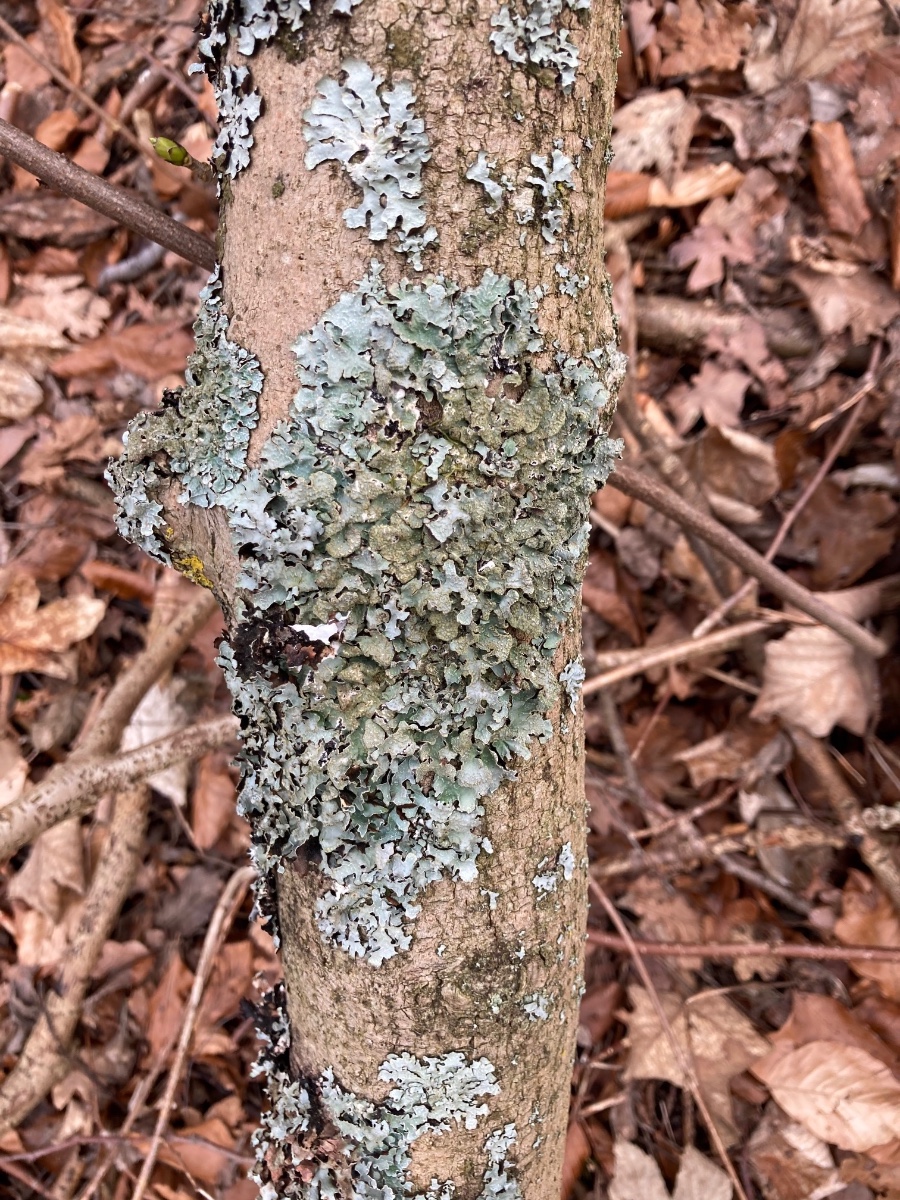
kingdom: Fungi
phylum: Ascomycota
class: Lecanoromycetes
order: Lecanorales
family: Parmeliaceae
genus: Parmelia
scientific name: Parmelia sulcata
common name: rynket skållav
